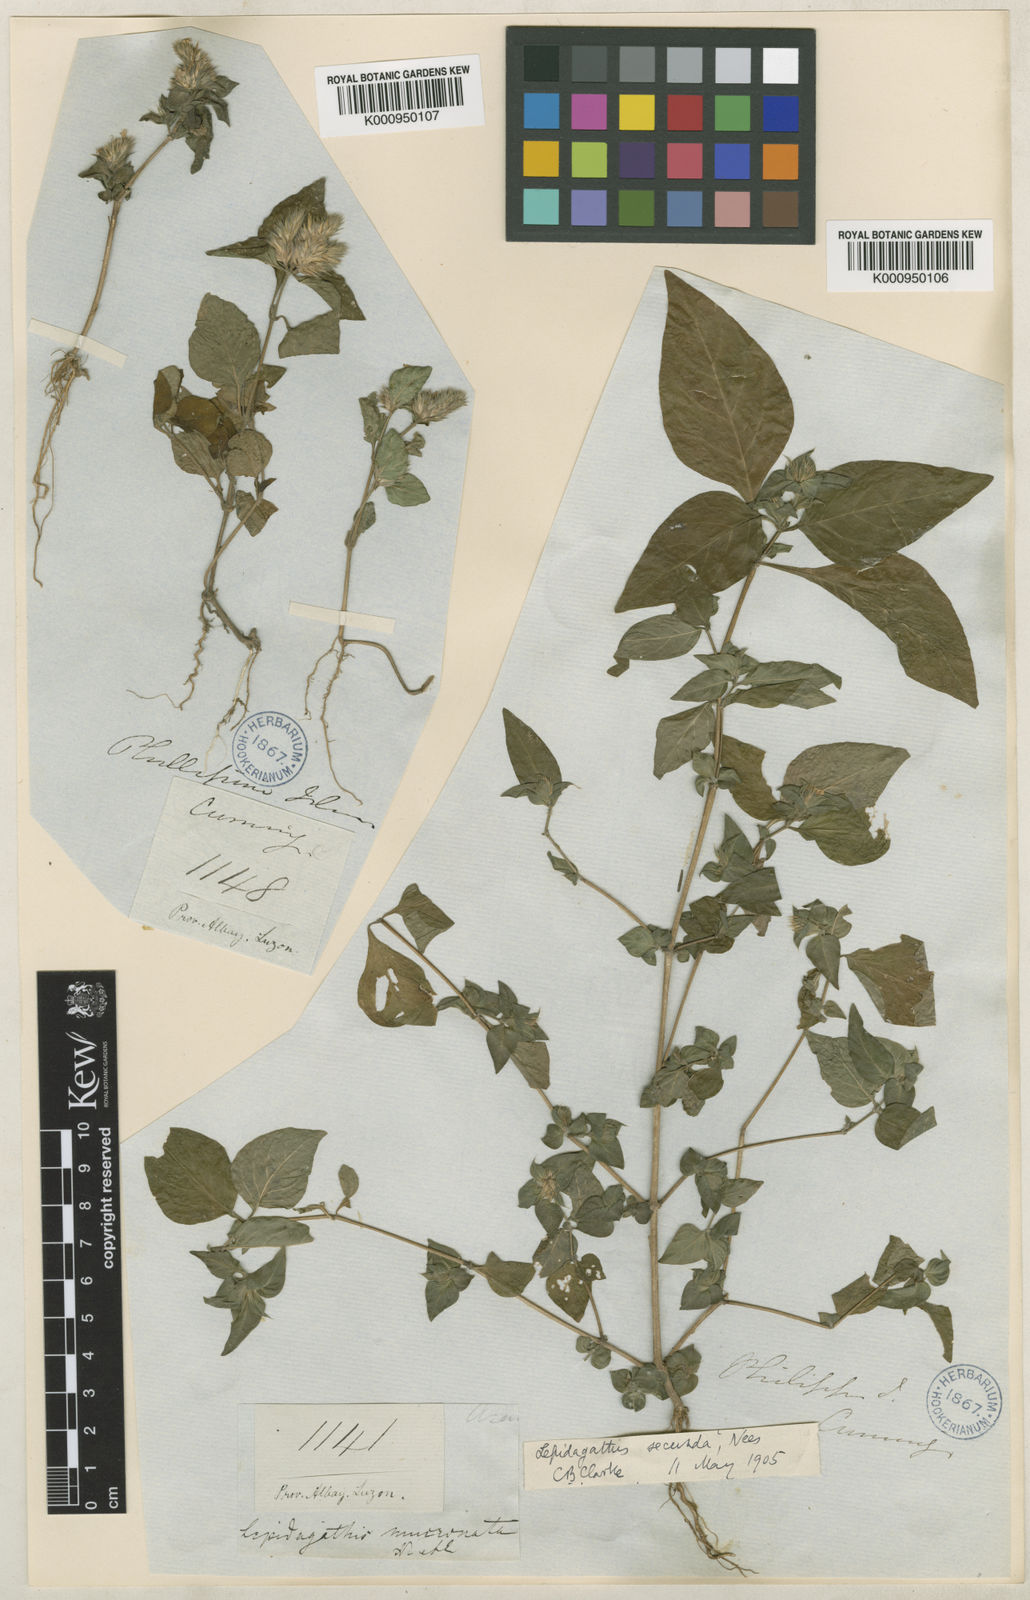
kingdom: Plantae
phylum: Tracheophyta
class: Magnoliopsida
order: Lamiales
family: Acanthaceae
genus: Lepidagathis
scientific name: Lepidagathis secunda
